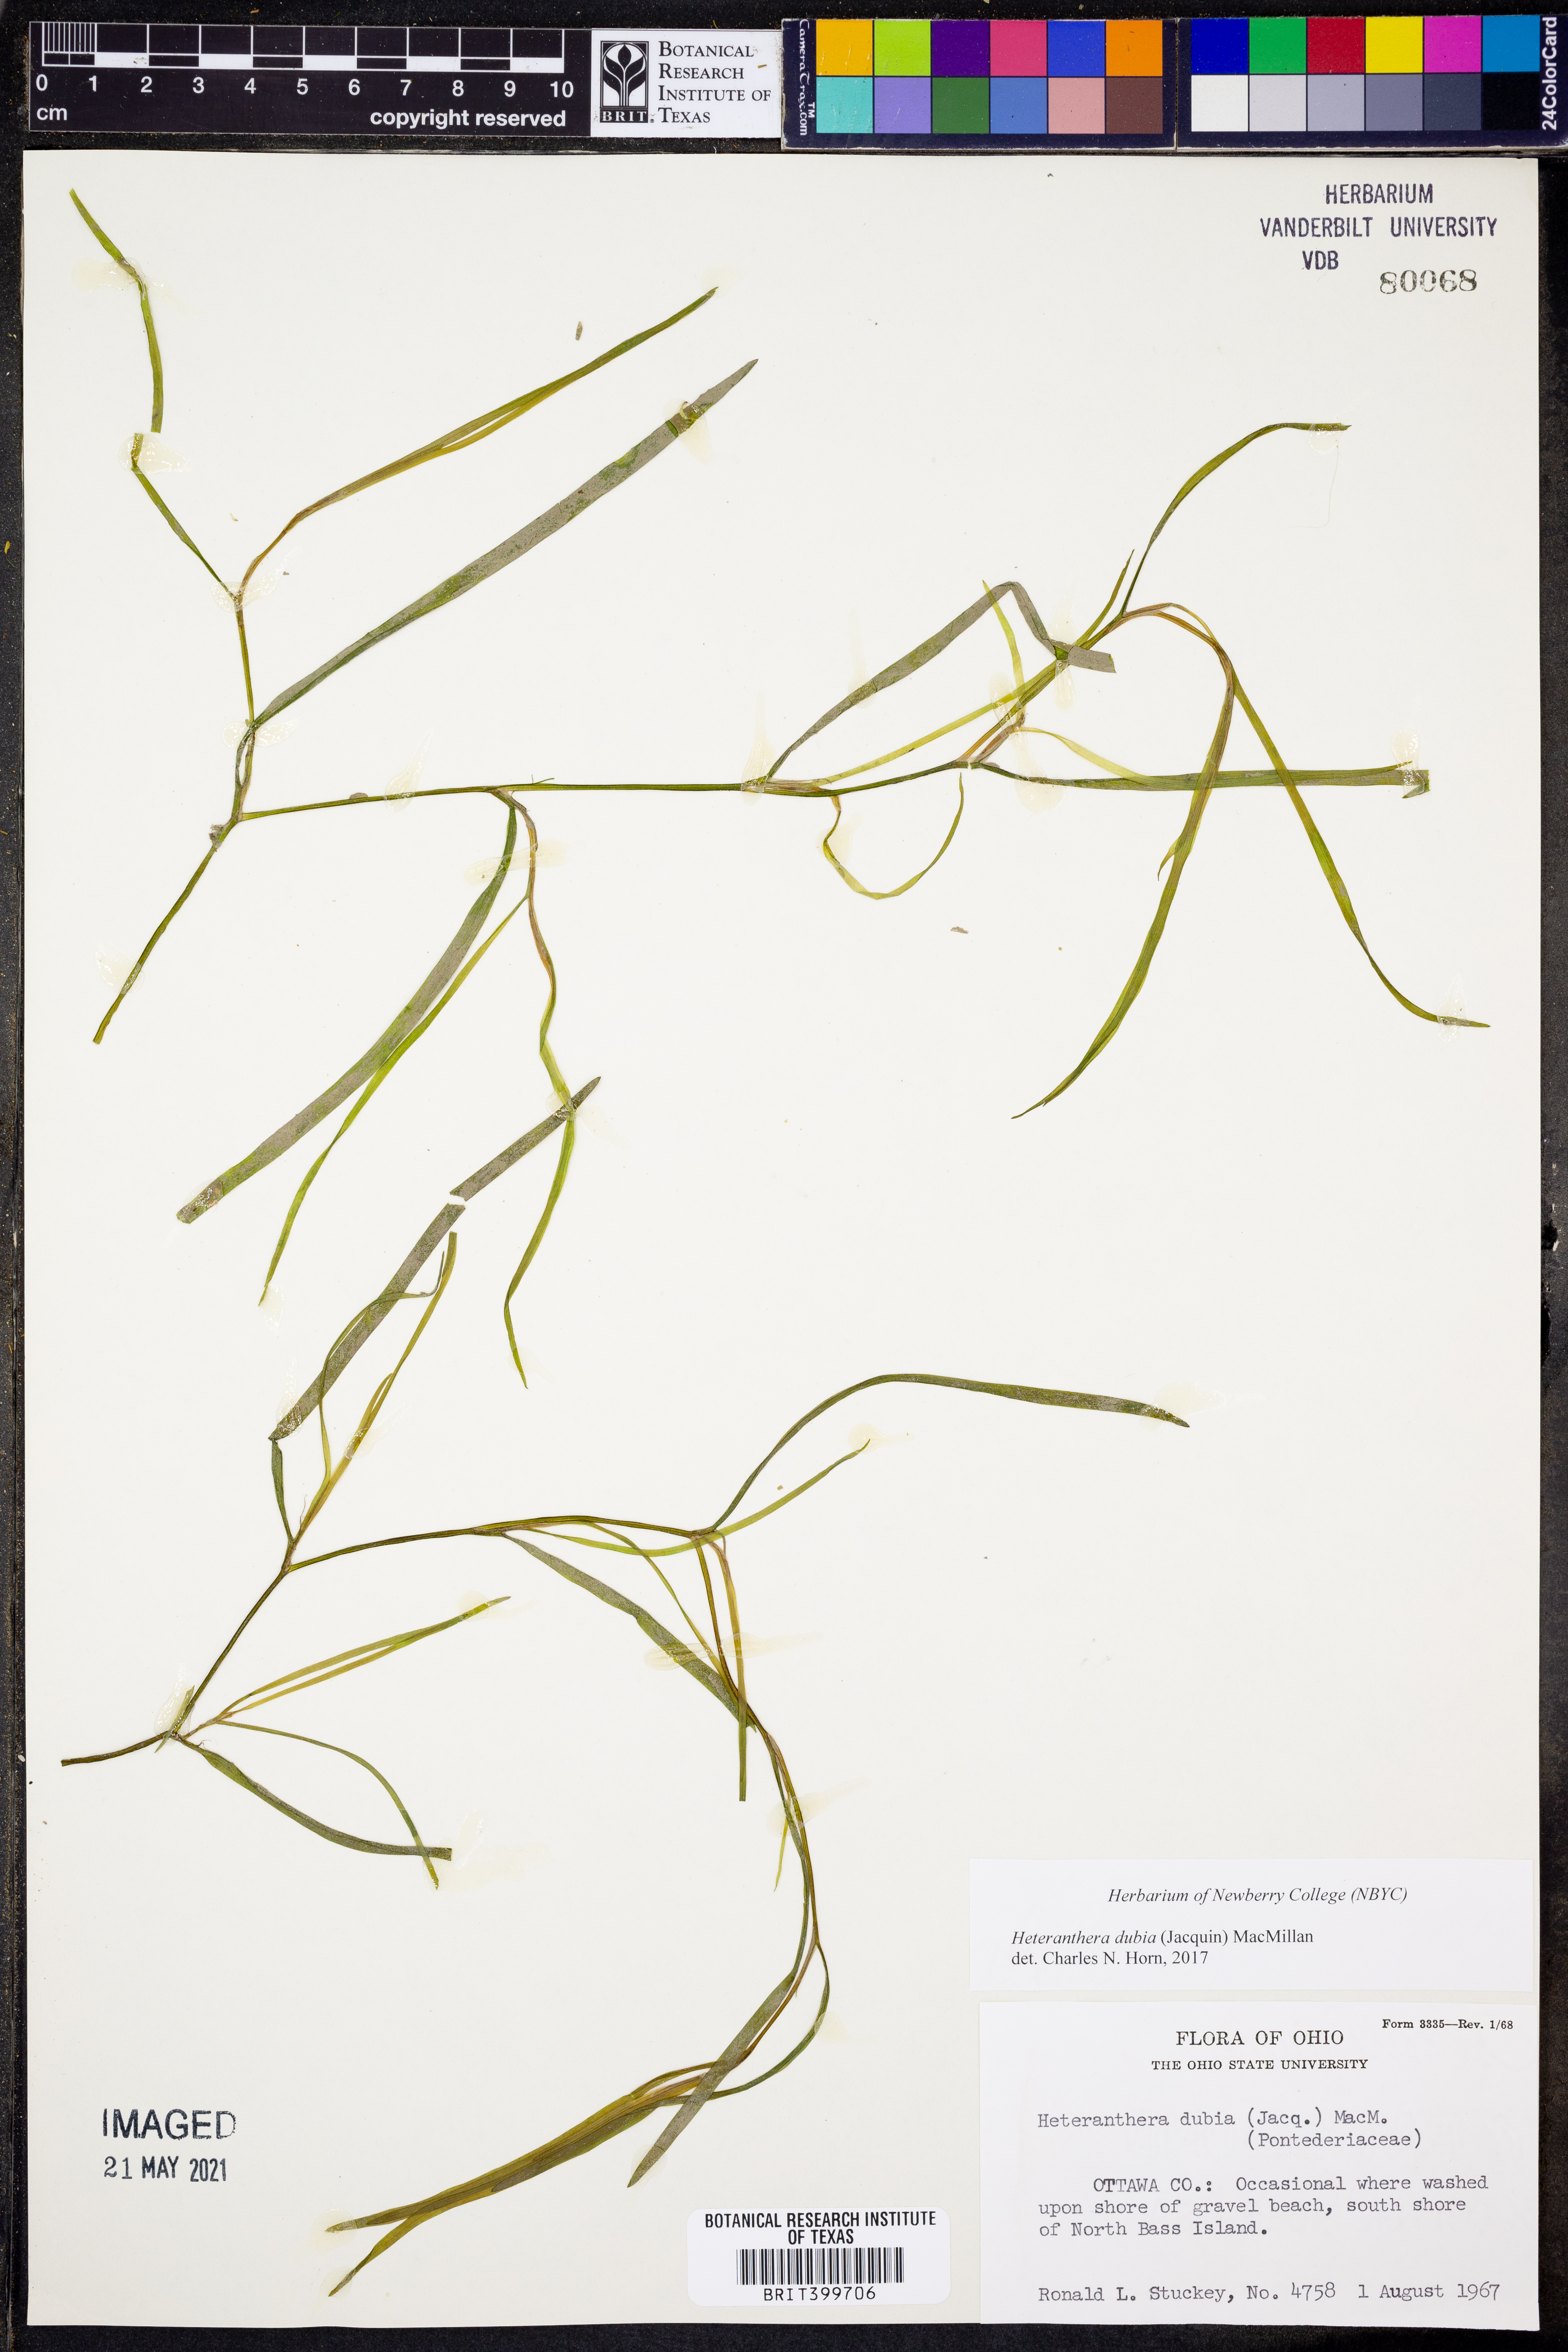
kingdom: Plantae
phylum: Tracheophyta
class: Liliopsida
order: Commelinales
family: Pontederiaceae
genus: Heteranthera
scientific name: Heteranthera dubia
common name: Grass-leaved mud plantain
